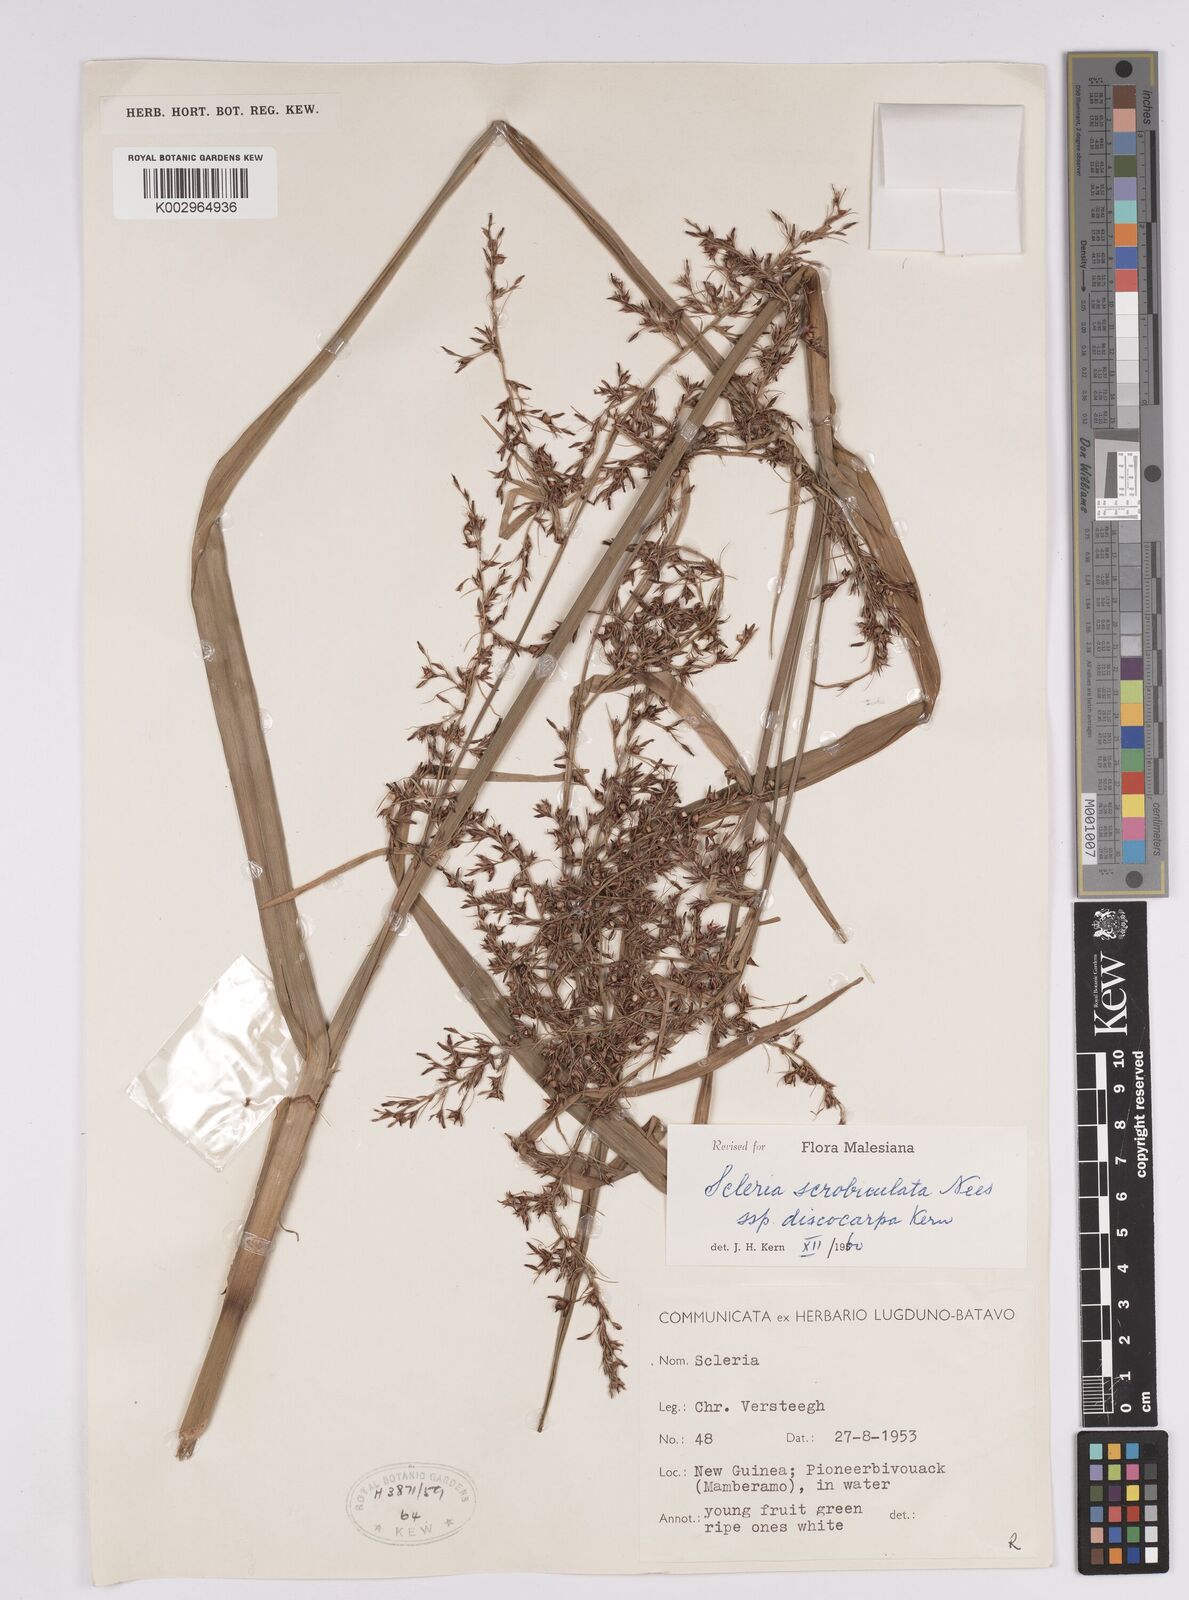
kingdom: Plantae
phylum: Tracheophyta
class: Liliopsida
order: Poales
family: Cyperaceae
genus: Scleria
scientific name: Scleria scrobiculata
